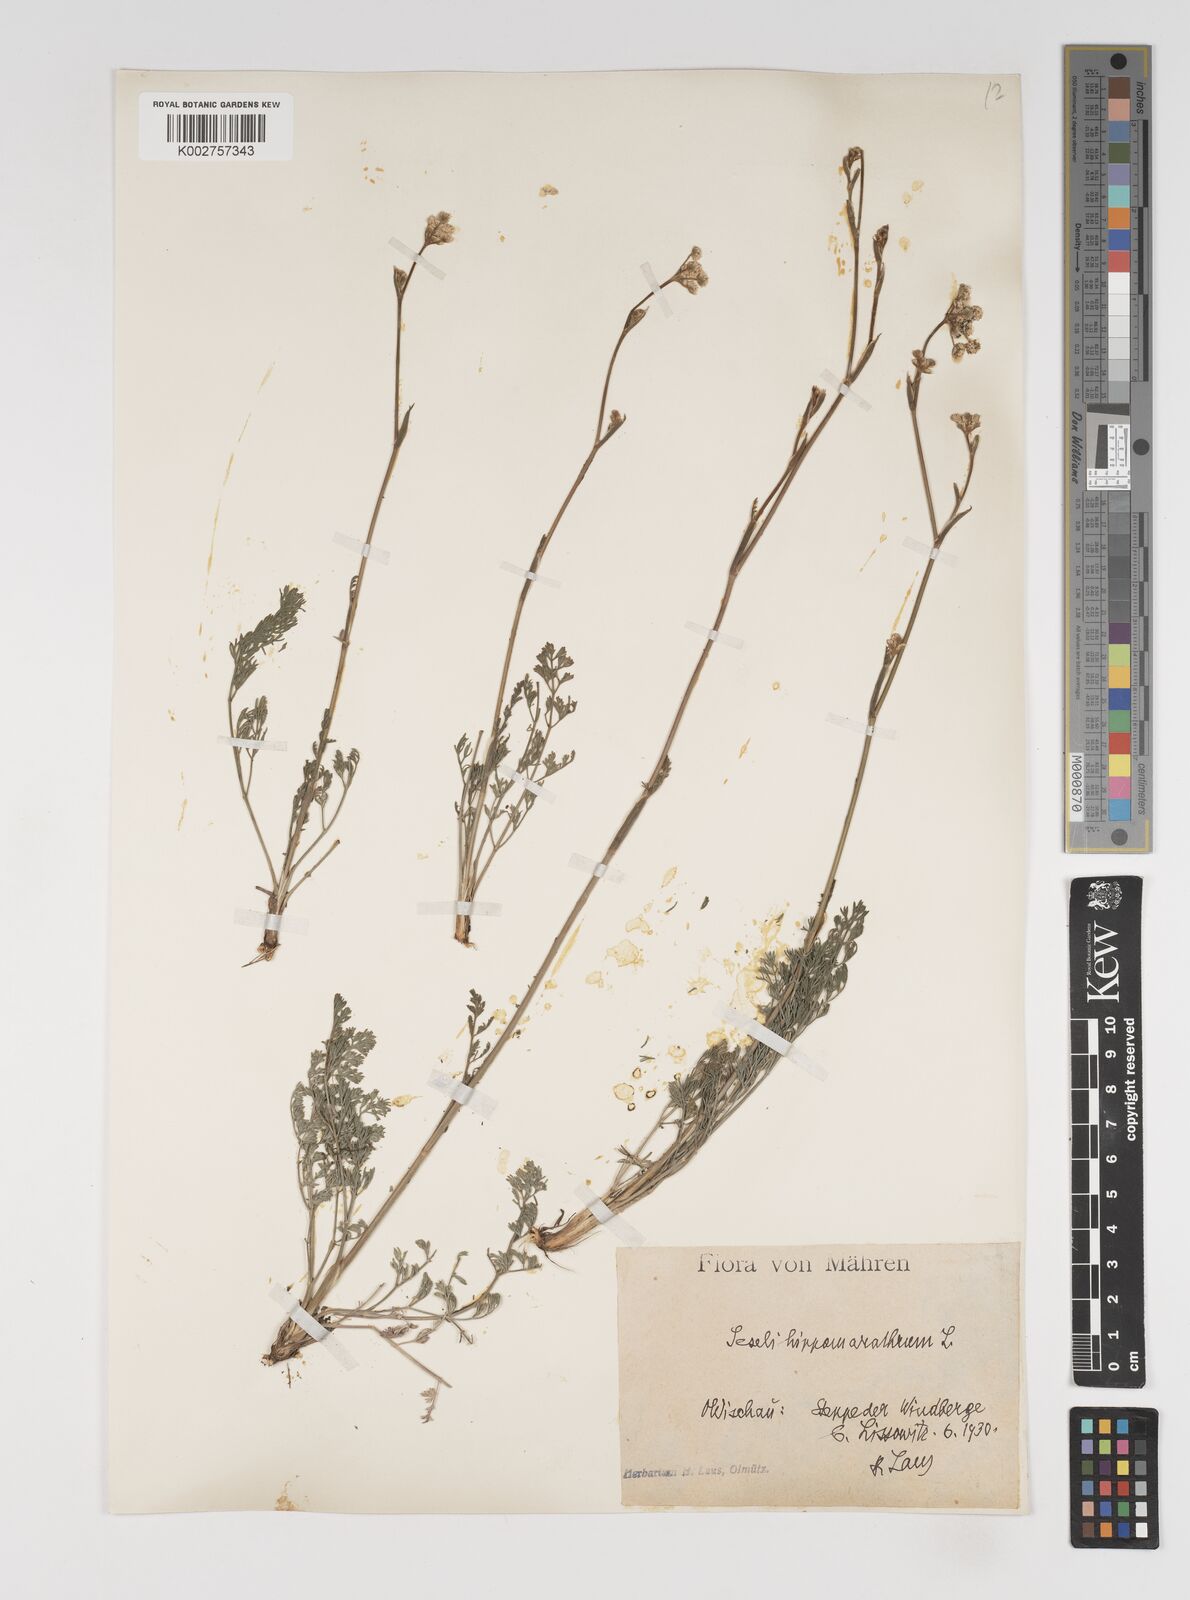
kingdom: Plantae
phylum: Tracheophyta
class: Magnoliopsida
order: Apiales
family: Apiaceae
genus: Seseli
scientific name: Seseli
